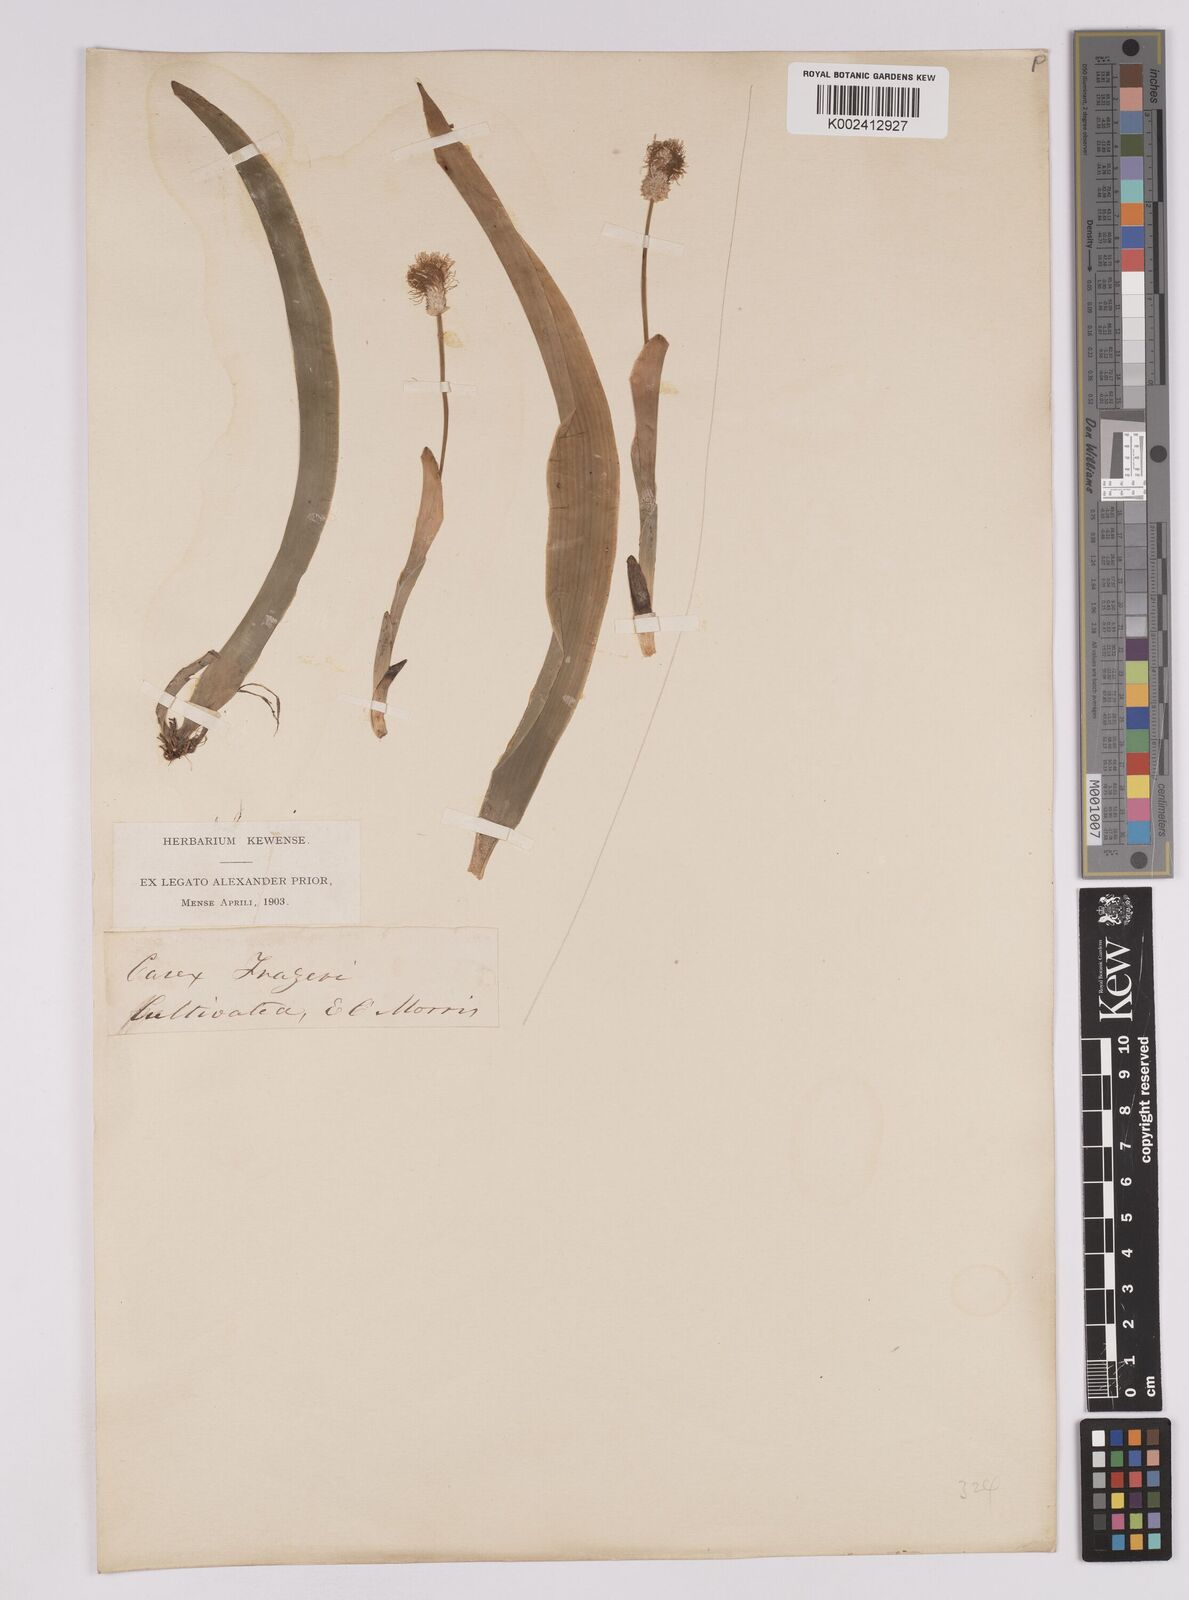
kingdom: Plantae
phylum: Tracheophyta
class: Liliopsida
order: Poales
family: Cyperaceae
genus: Carex
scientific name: Carex fraseriana
